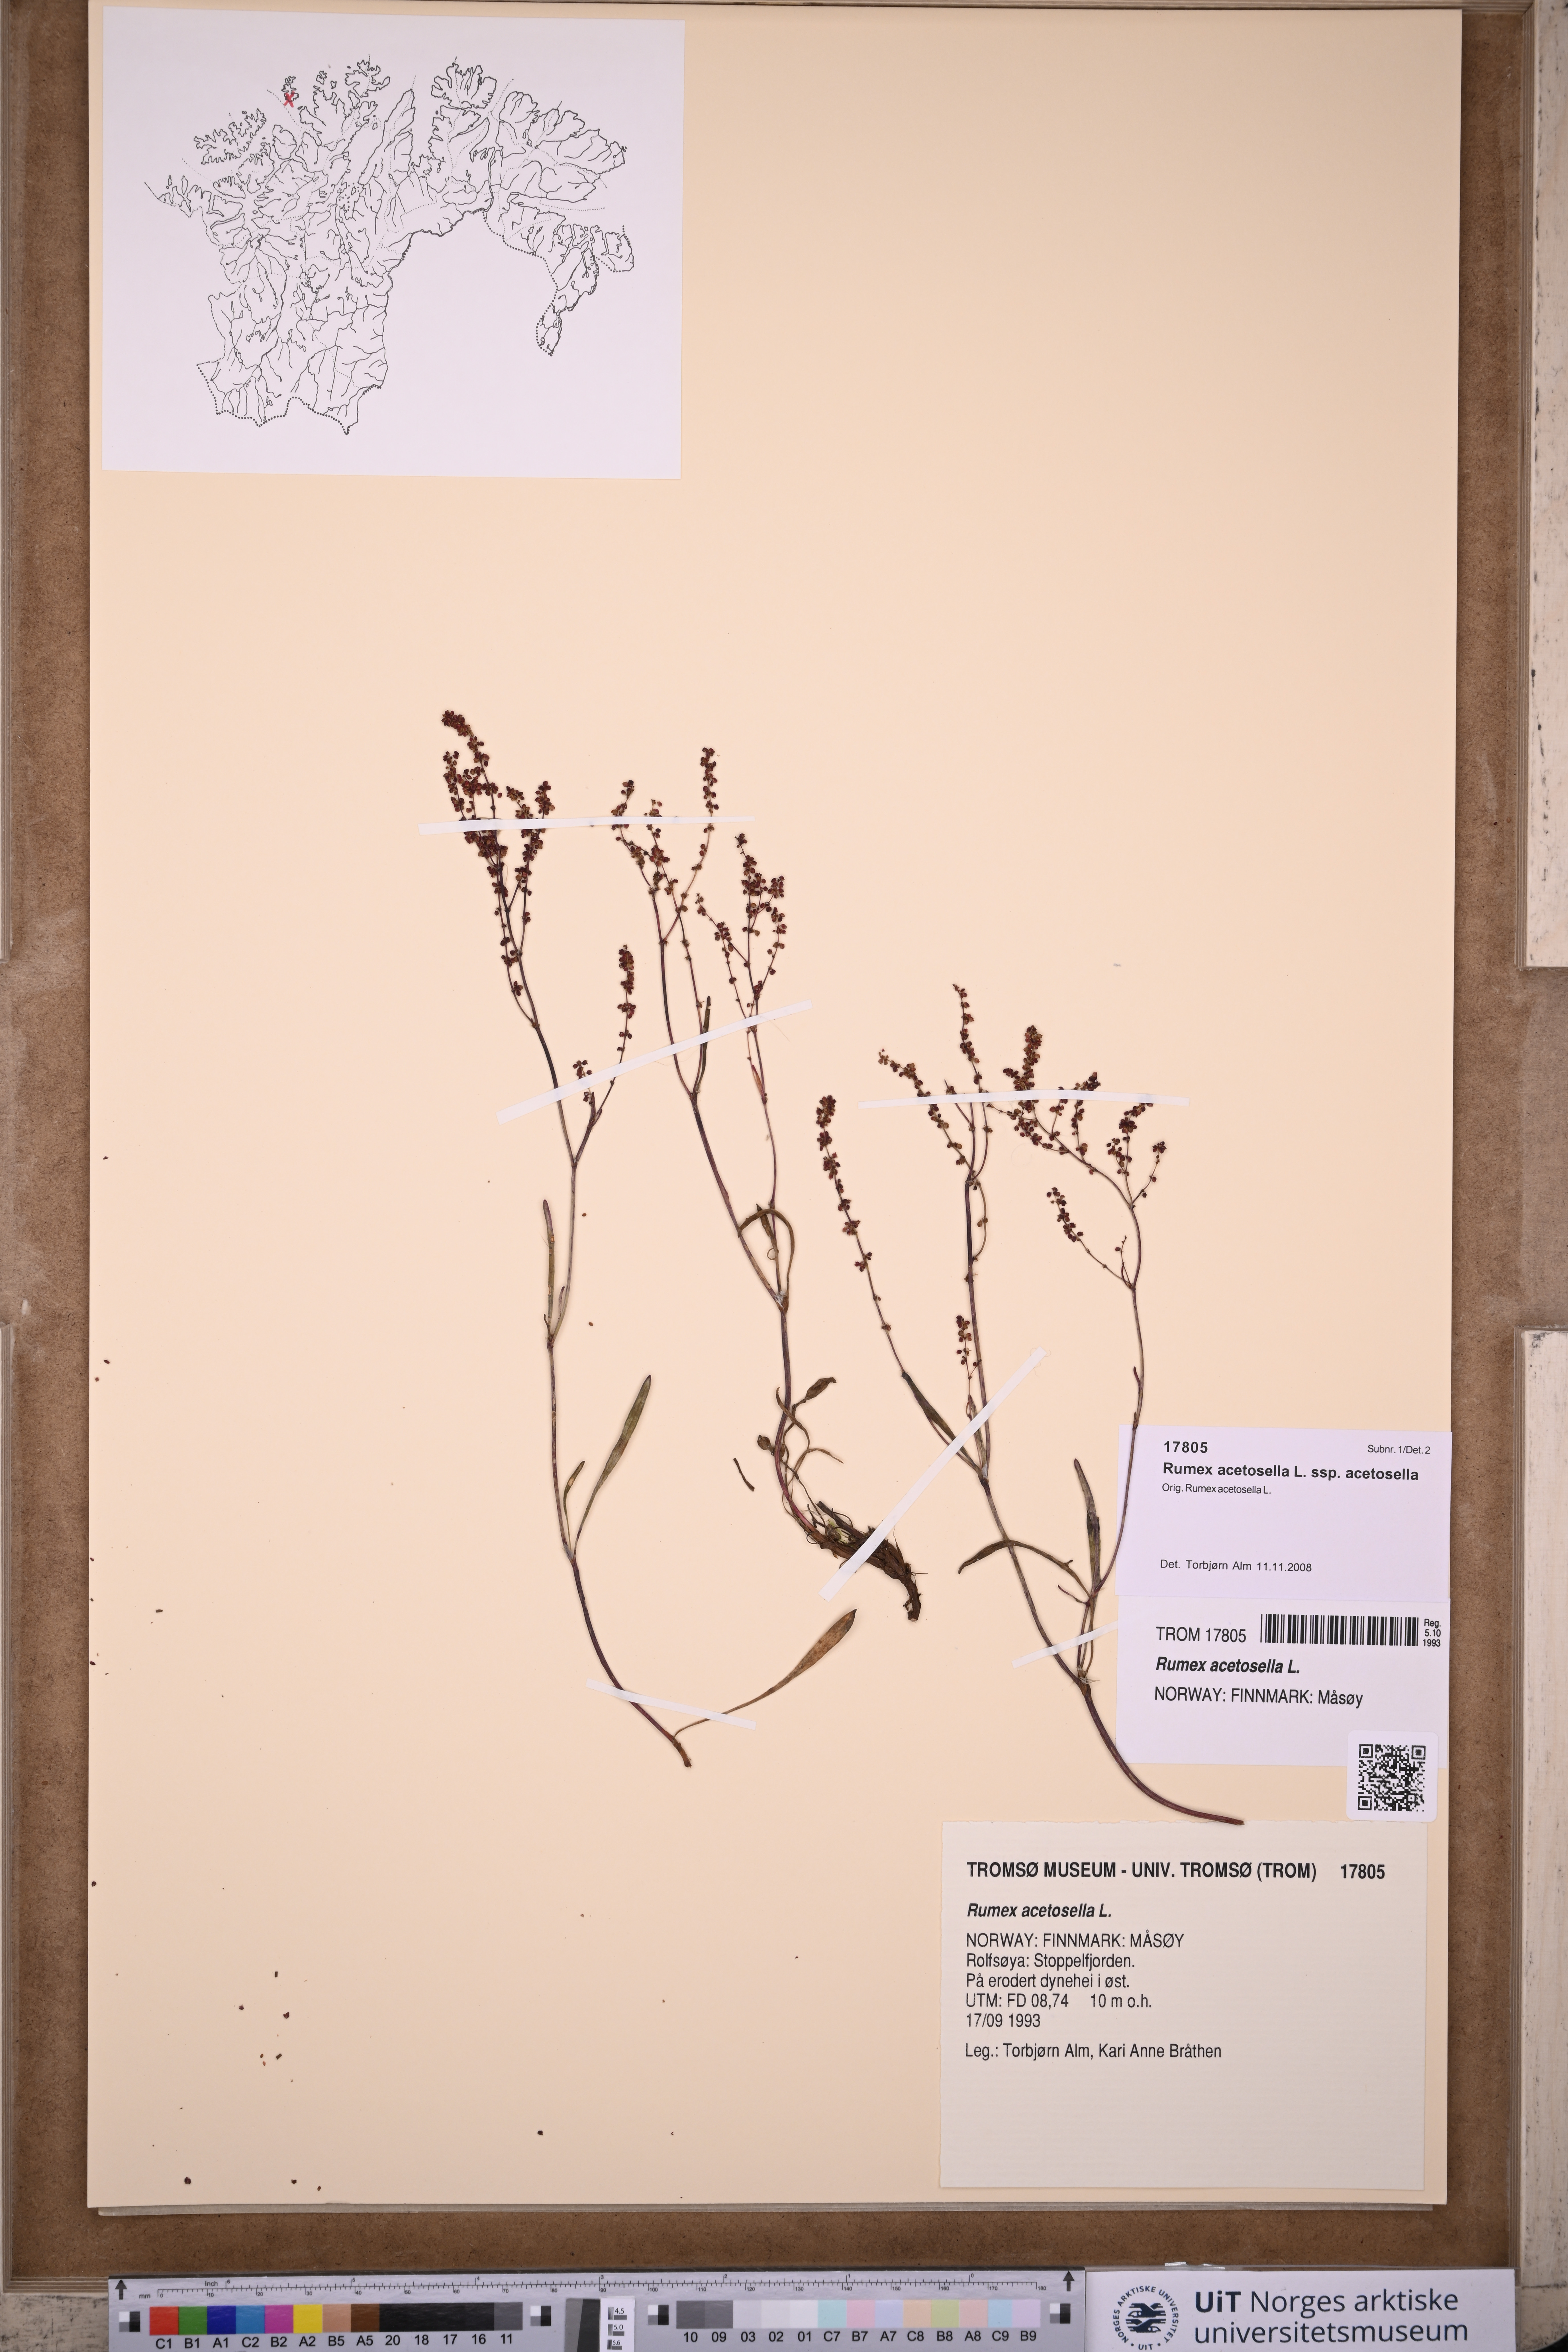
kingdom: Plantae
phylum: Tracheophyta
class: Magnoliopsida
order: Caryophyllales
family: Polygonaceae
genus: Rumex
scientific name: Rumex acetosella
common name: Common sheep sorrel
